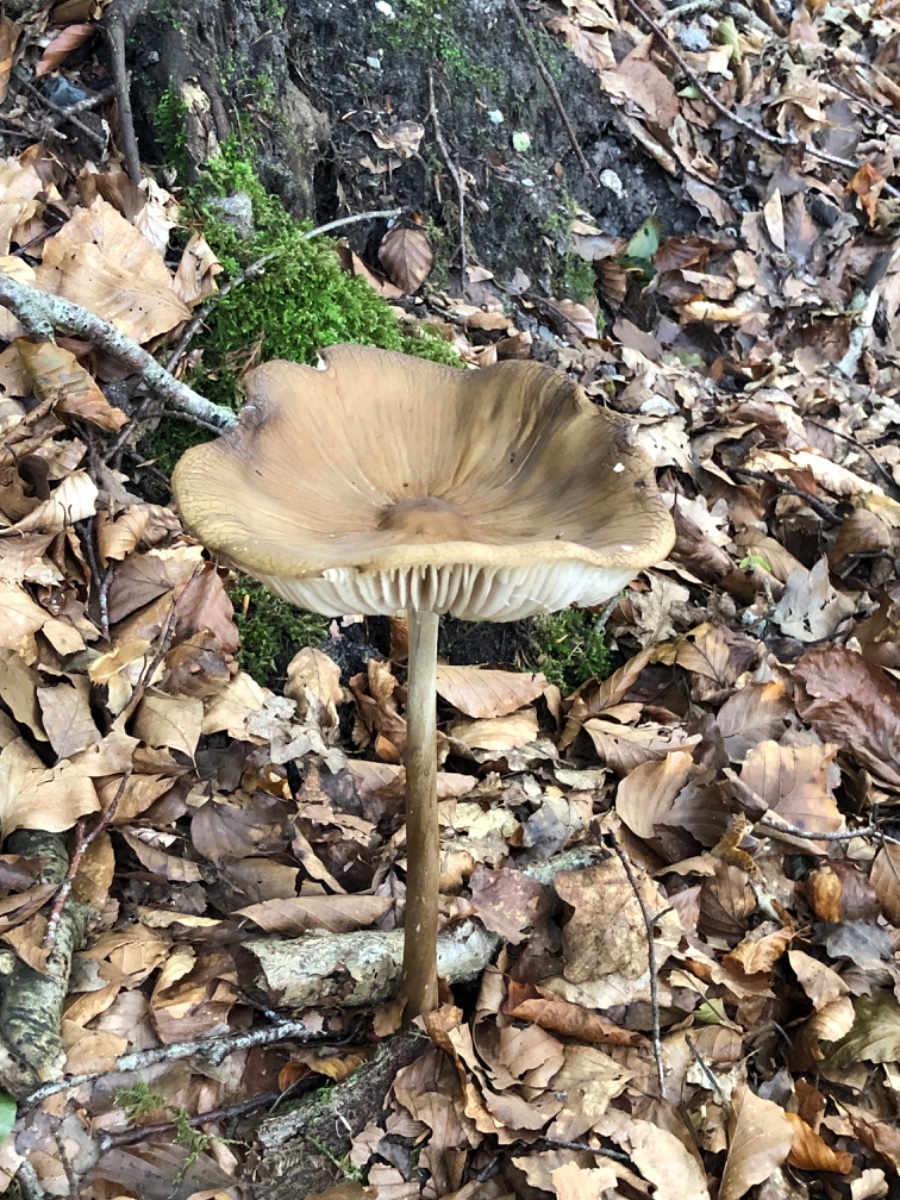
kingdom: Fungi
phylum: Basidiomycota
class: Agaricomycetes
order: Agaricales
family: Physalacriaceae
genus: Hymenopellis
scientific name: Hymenopellis radicata
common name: almindelig pælerodshat
